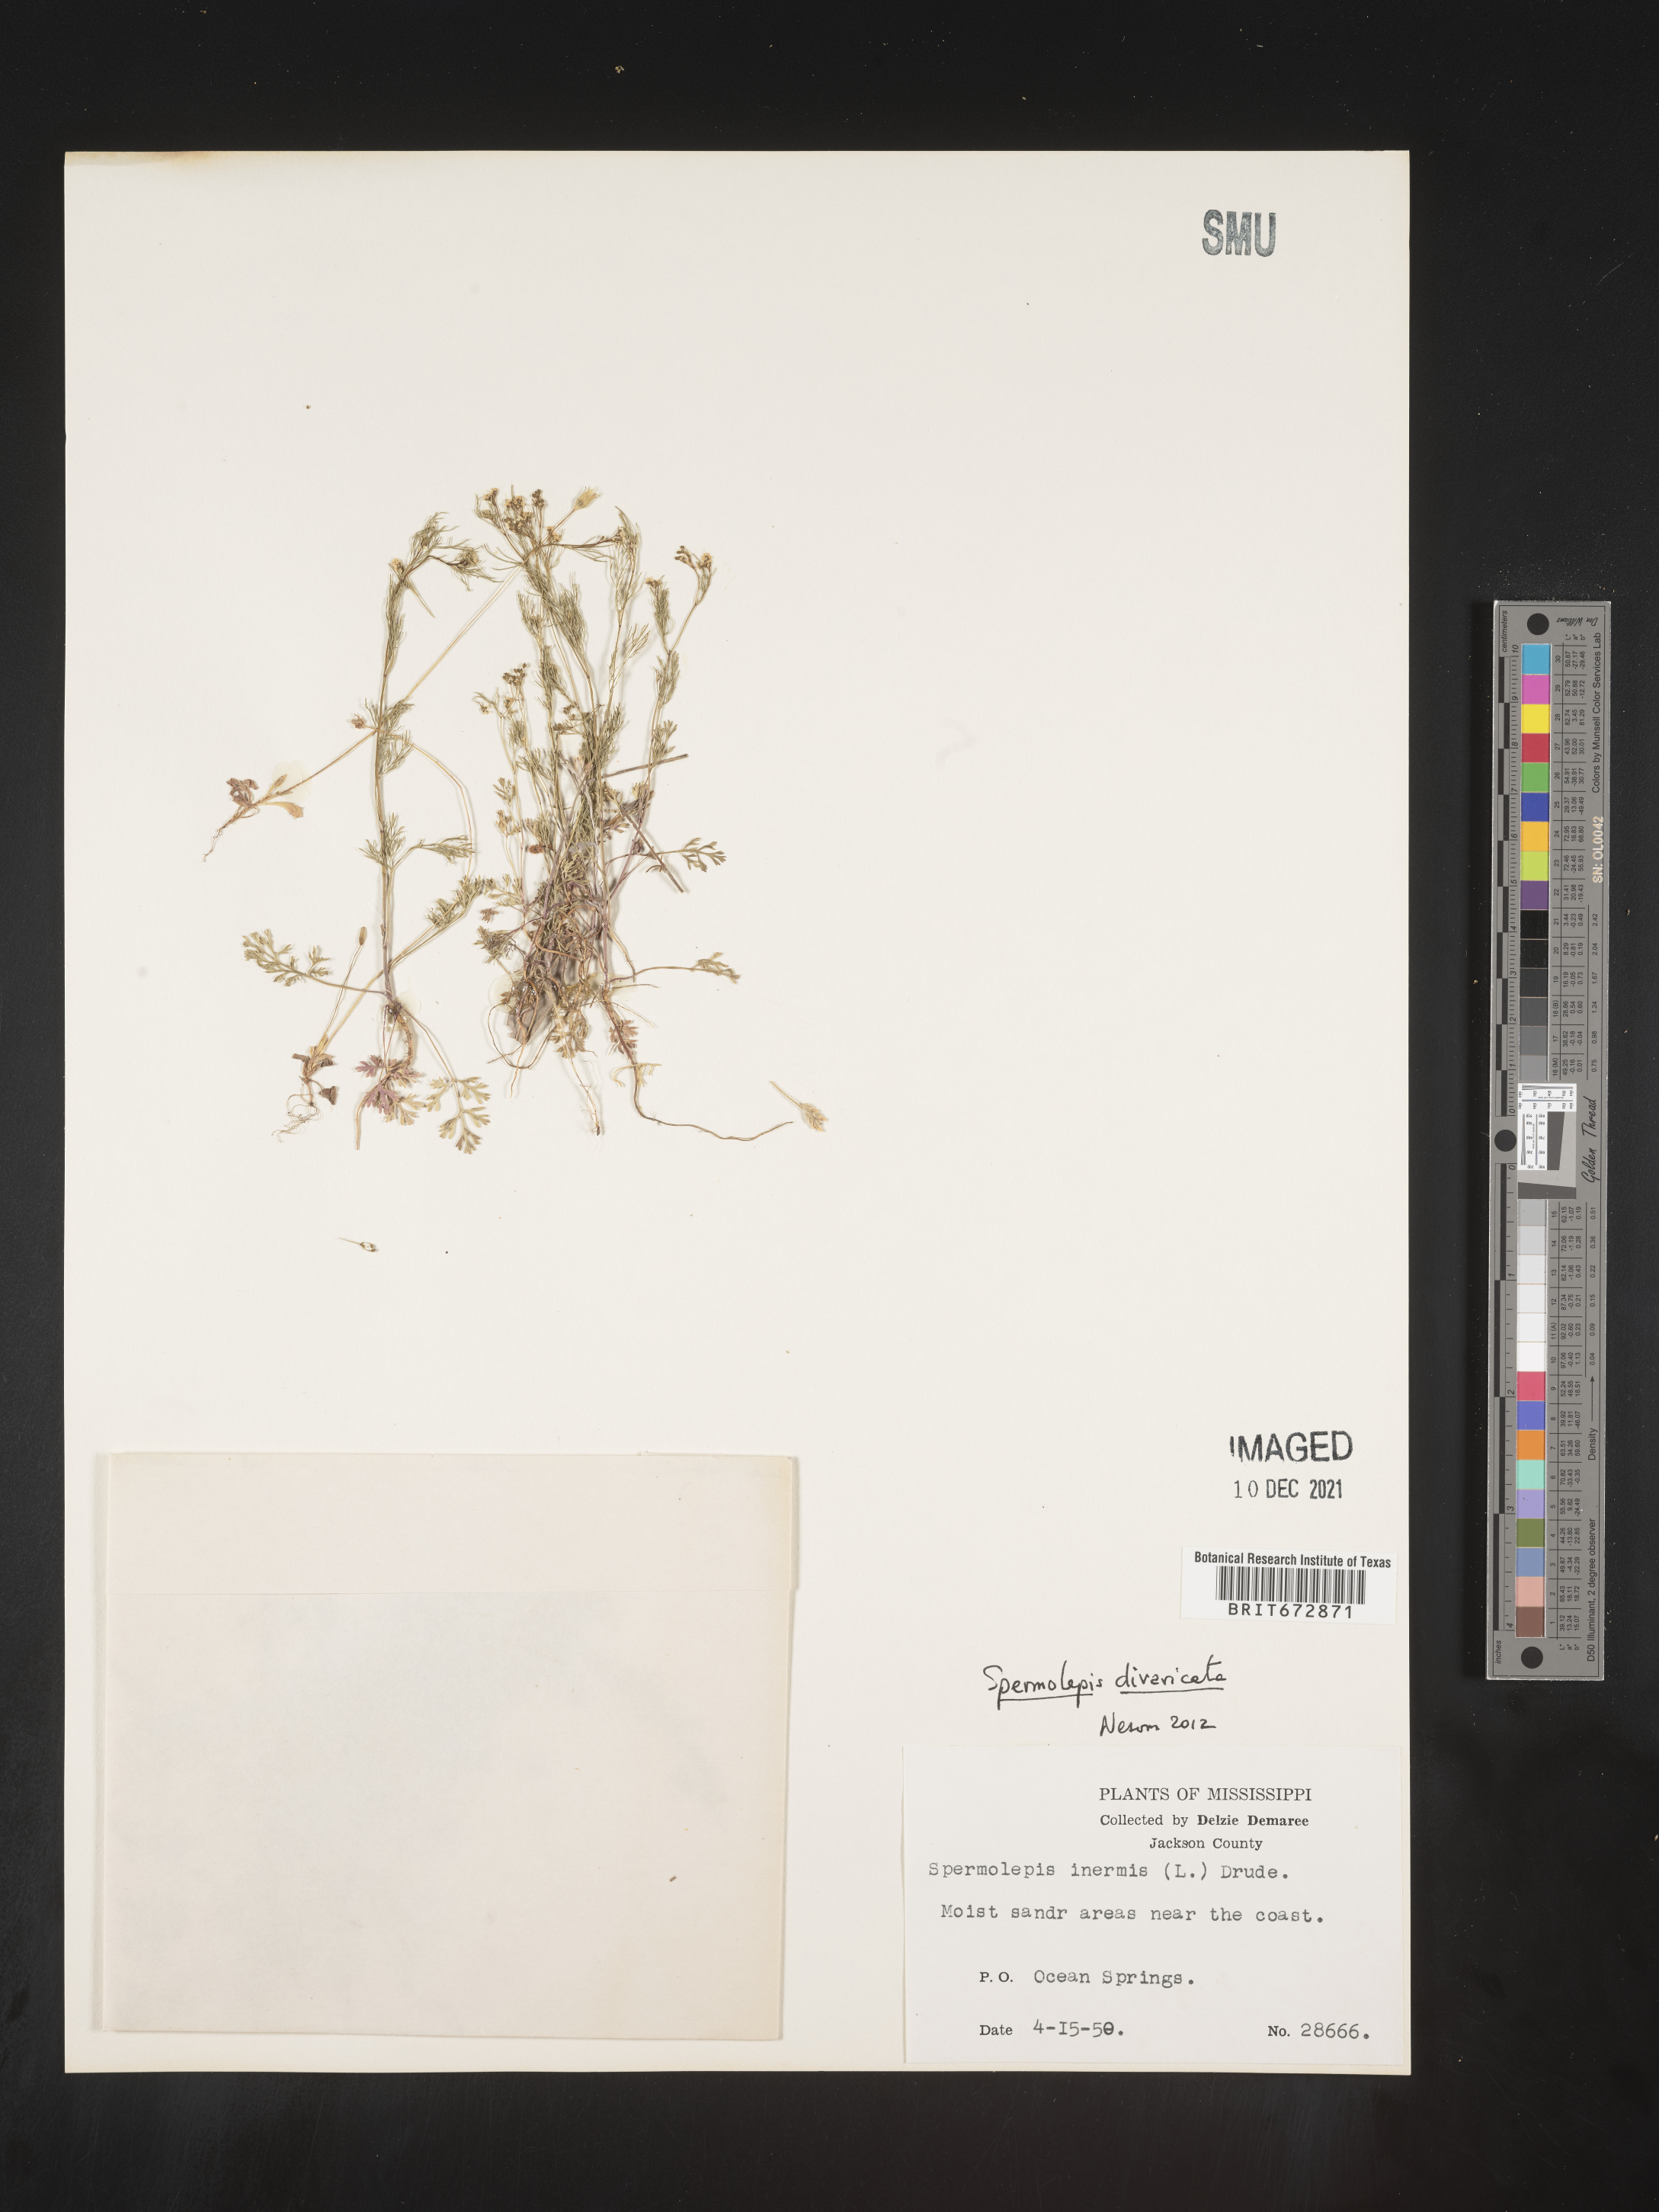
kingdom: Plantae
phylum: Tracheophyta
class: Magnoliopsida
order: Apiales
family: Apiaceae
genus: Spermolepis
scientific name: Spermolepis divaricata
